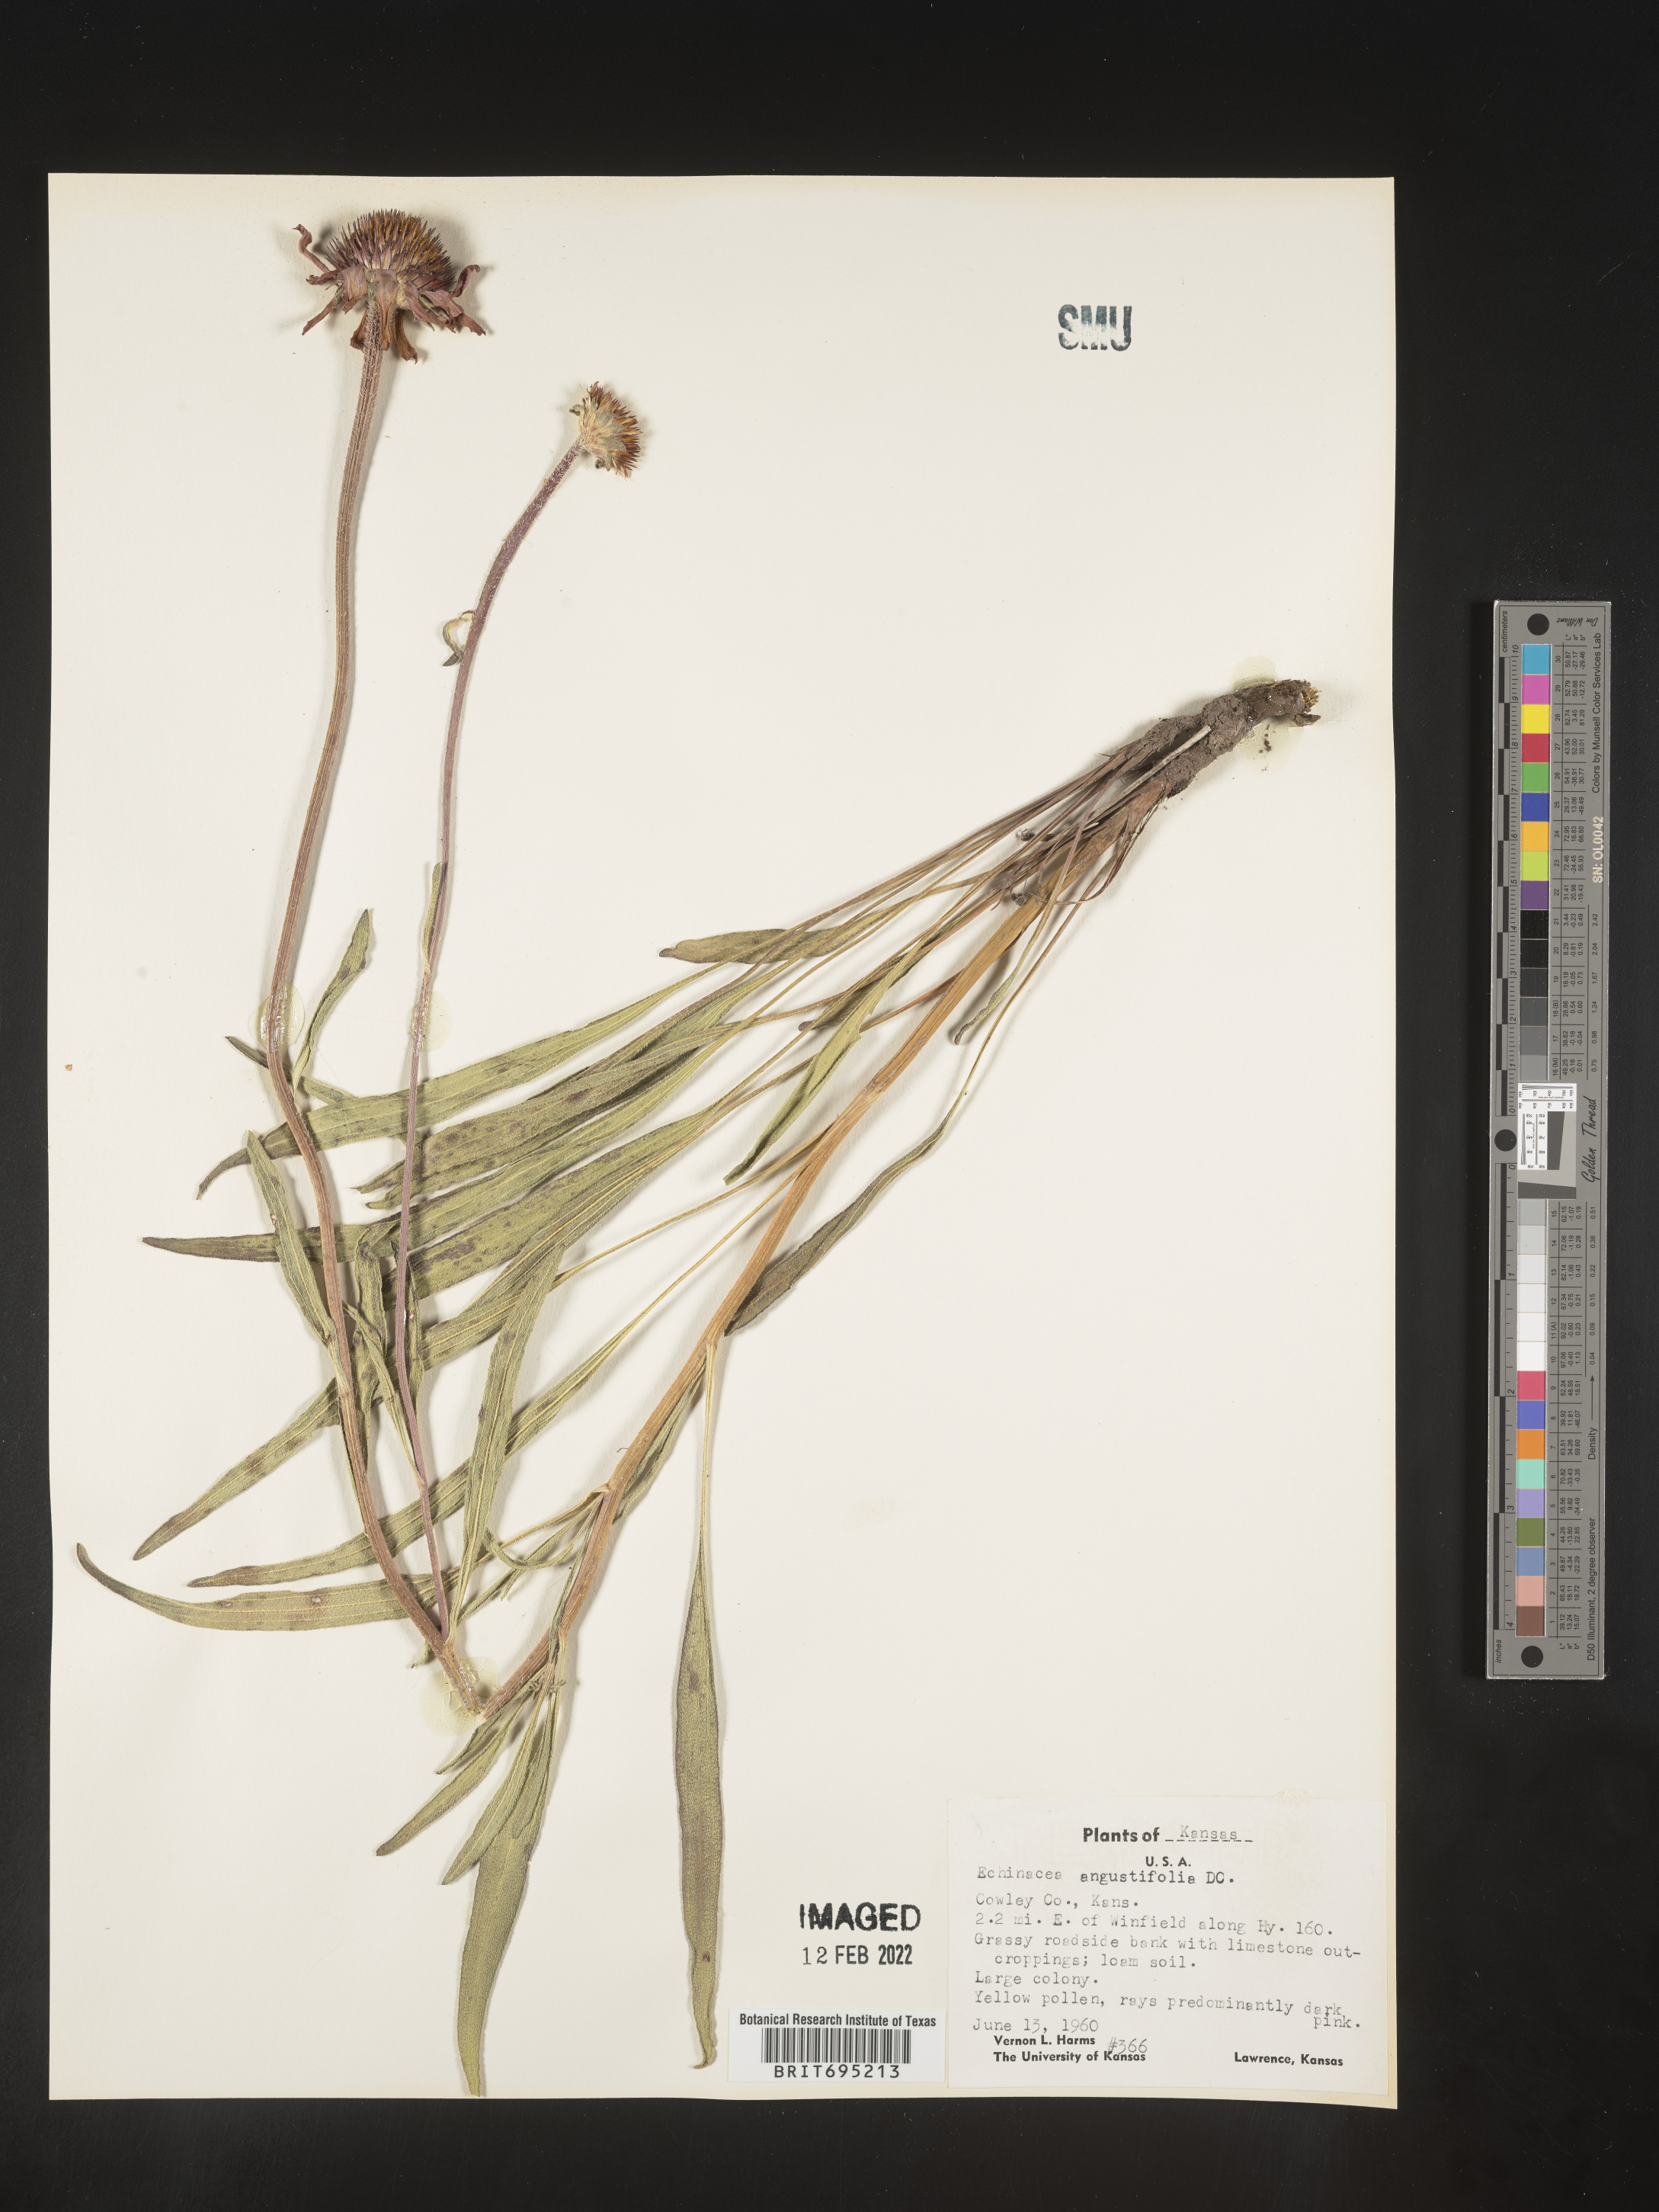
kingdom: Plantae
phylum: Tracheophyta
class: Magnoliopsida
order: Asterales
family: Asteraceae
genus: Echinacea
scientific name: Echinacea angustifolia
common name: Black-sampson echinacea
